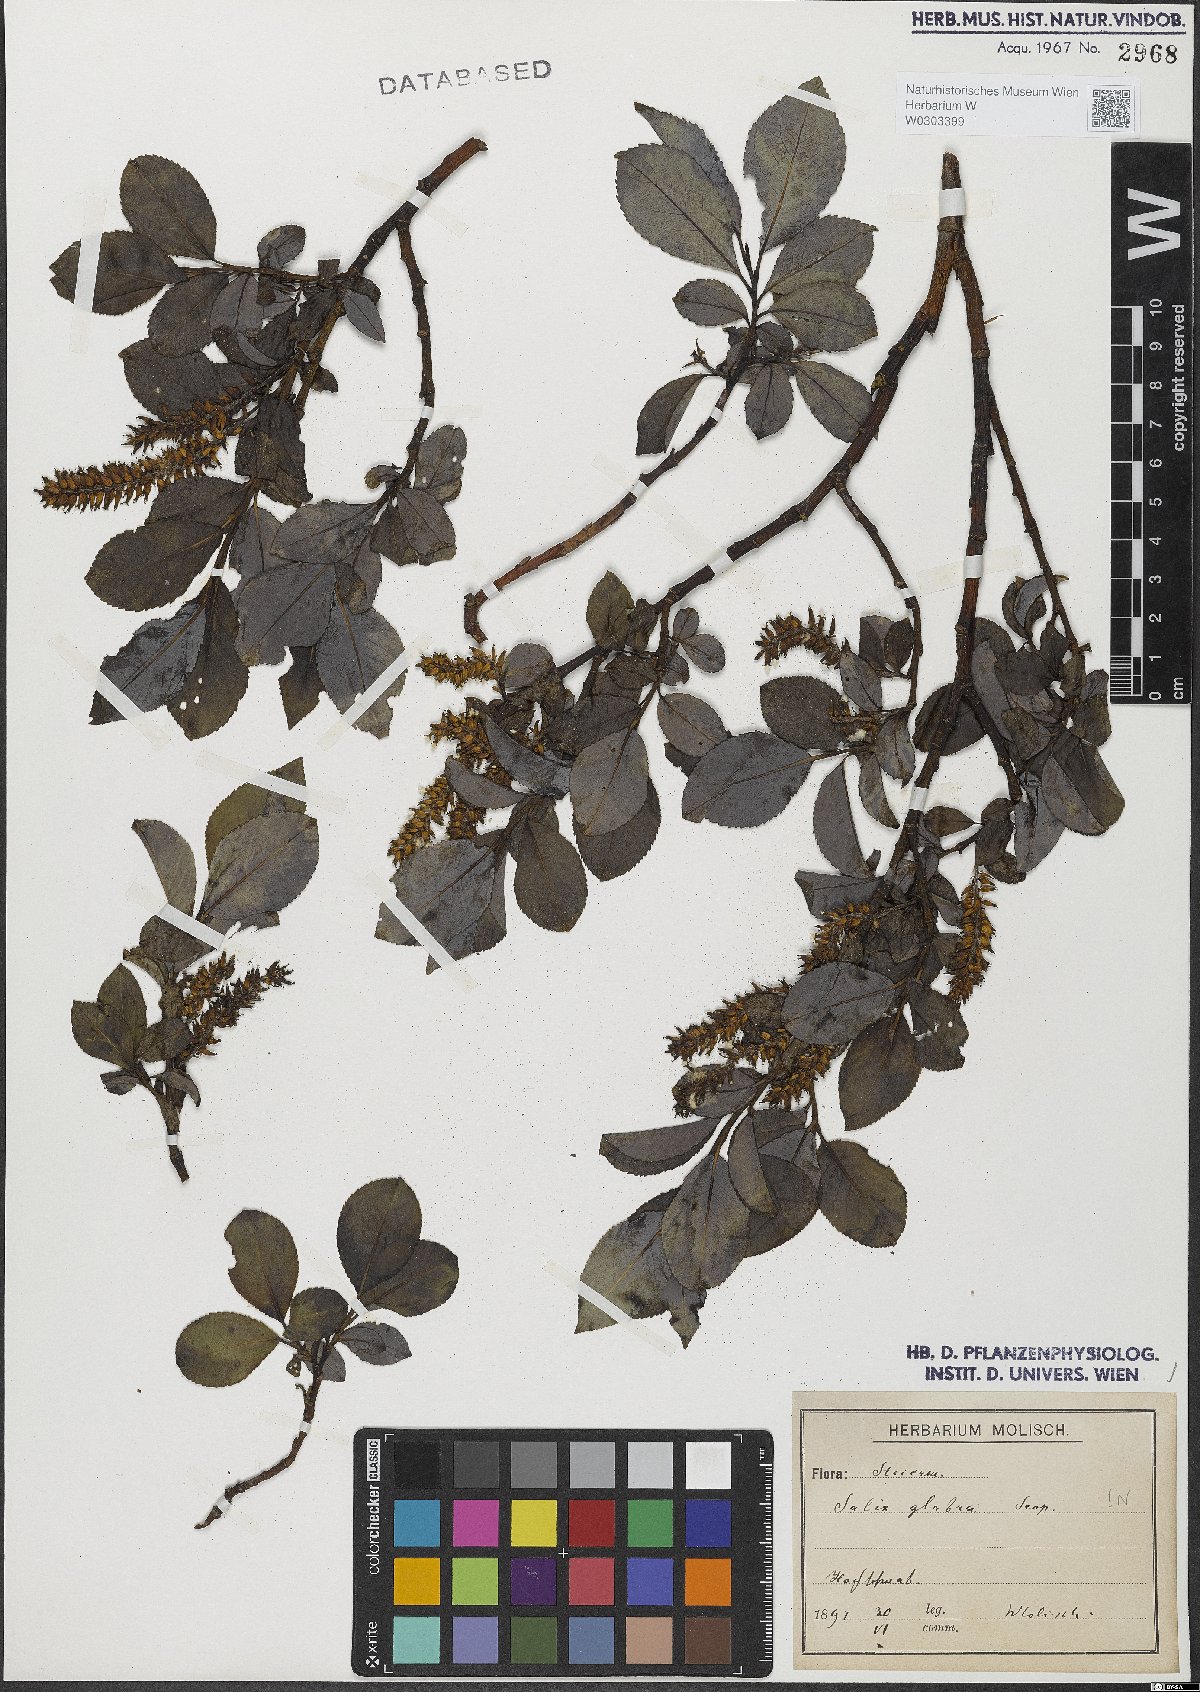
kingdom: Plantae
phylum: Tracheophyta
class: Magnoliopsida
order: Malpighiales
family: Salicaceae
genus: Salix
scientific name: Salix glabra
